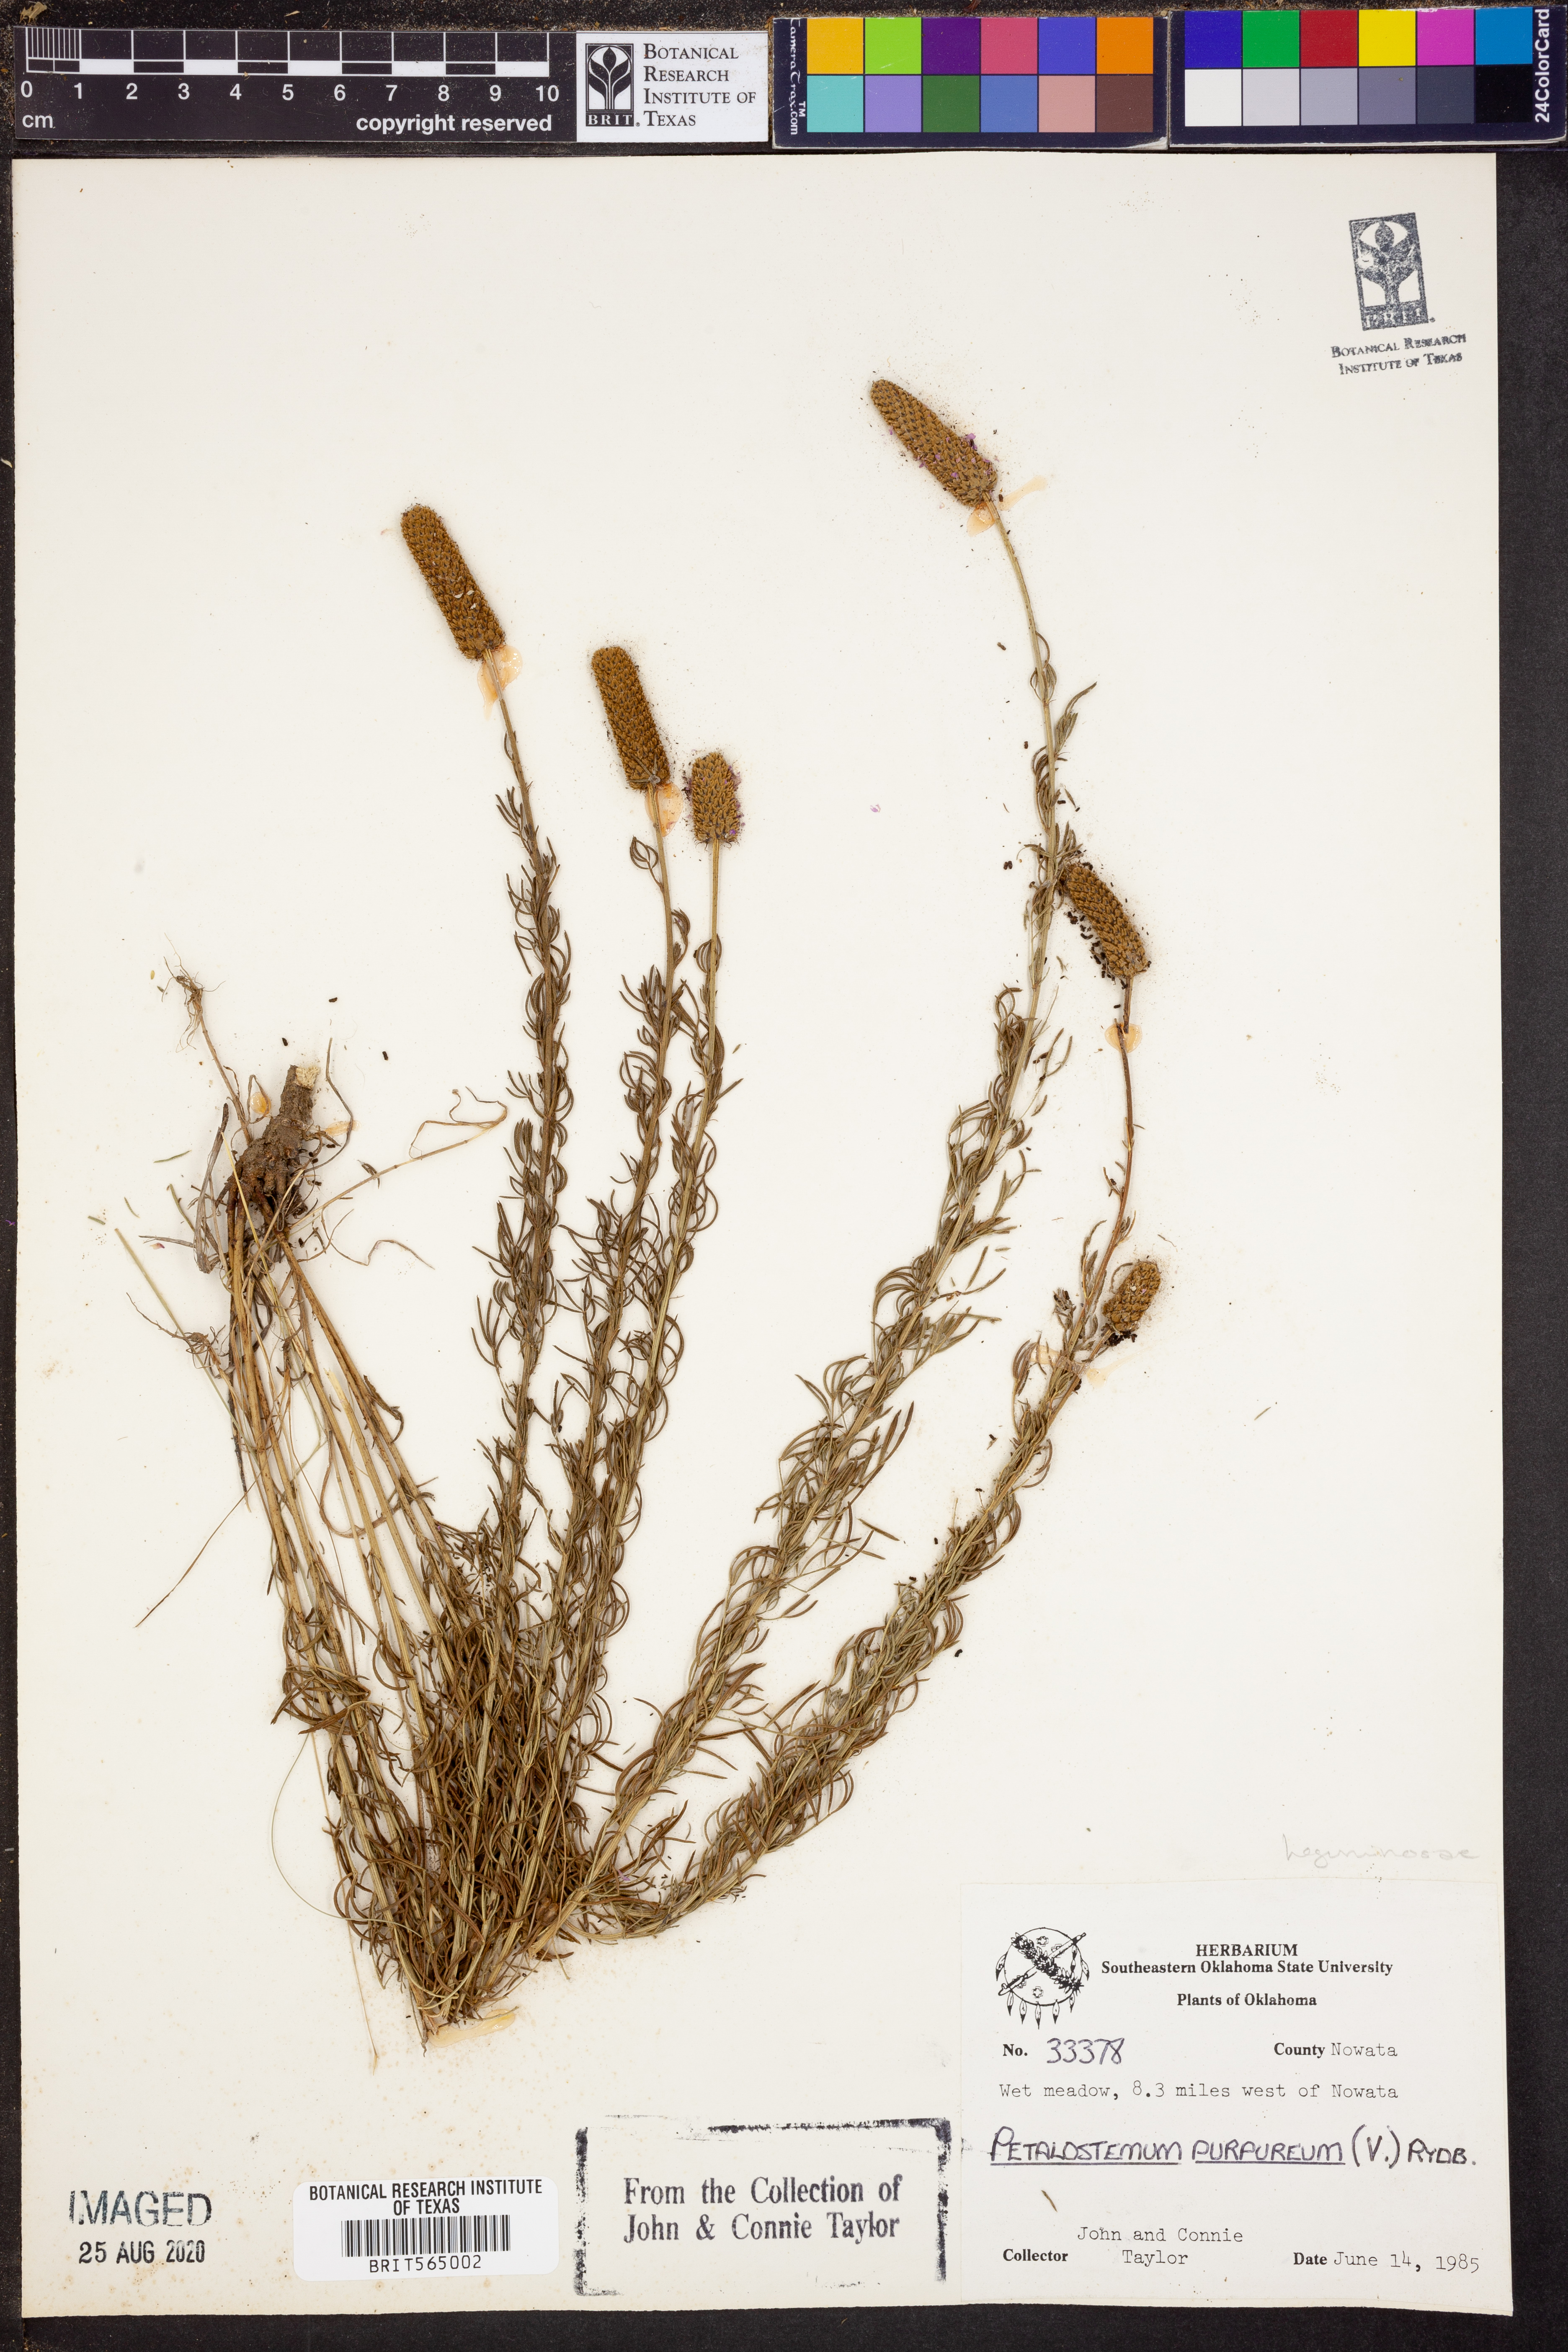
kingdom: Plantae
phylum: Tracheophyta
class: Magnoliopsida
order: Fabales
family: Fabaceae
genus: Dalea
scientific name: Dalea purpurea
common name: Purple prairie-clover
